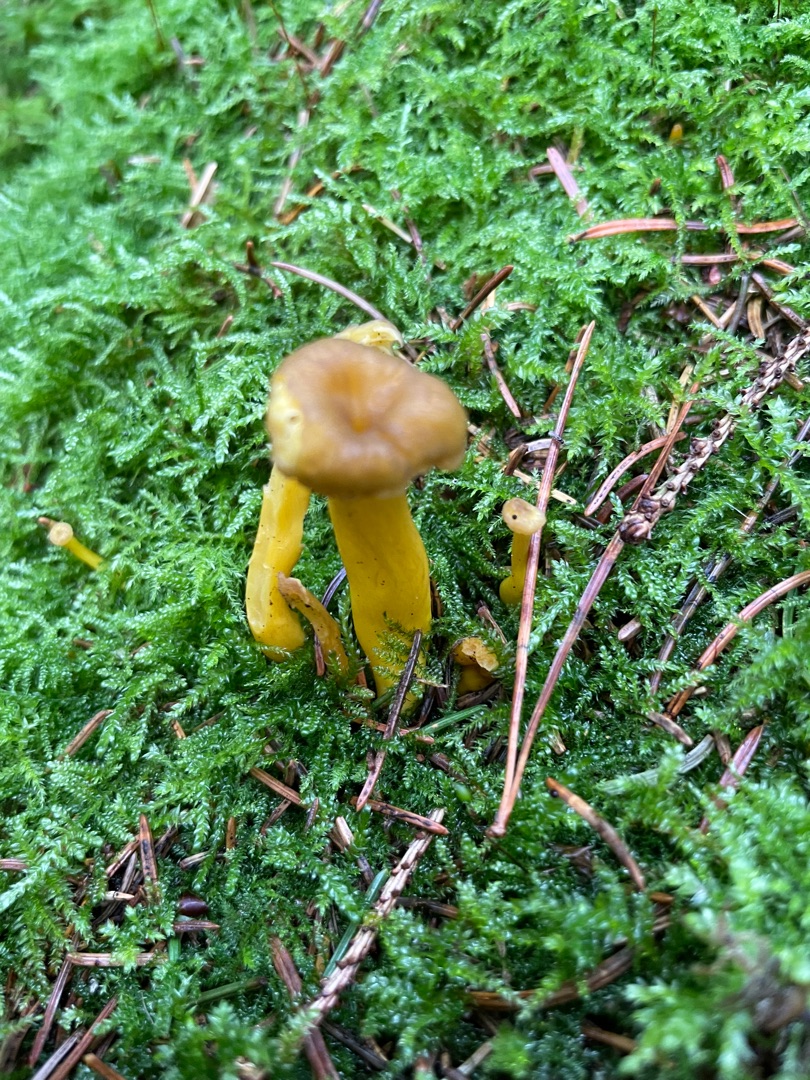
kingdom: Fungi
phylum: Basidiomycota
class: Agaricomycetes
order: Cantharellales
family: Hydnaceae
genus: Craterellus
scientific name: Craterellus tubaeformis
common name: Tragt-kantarel
